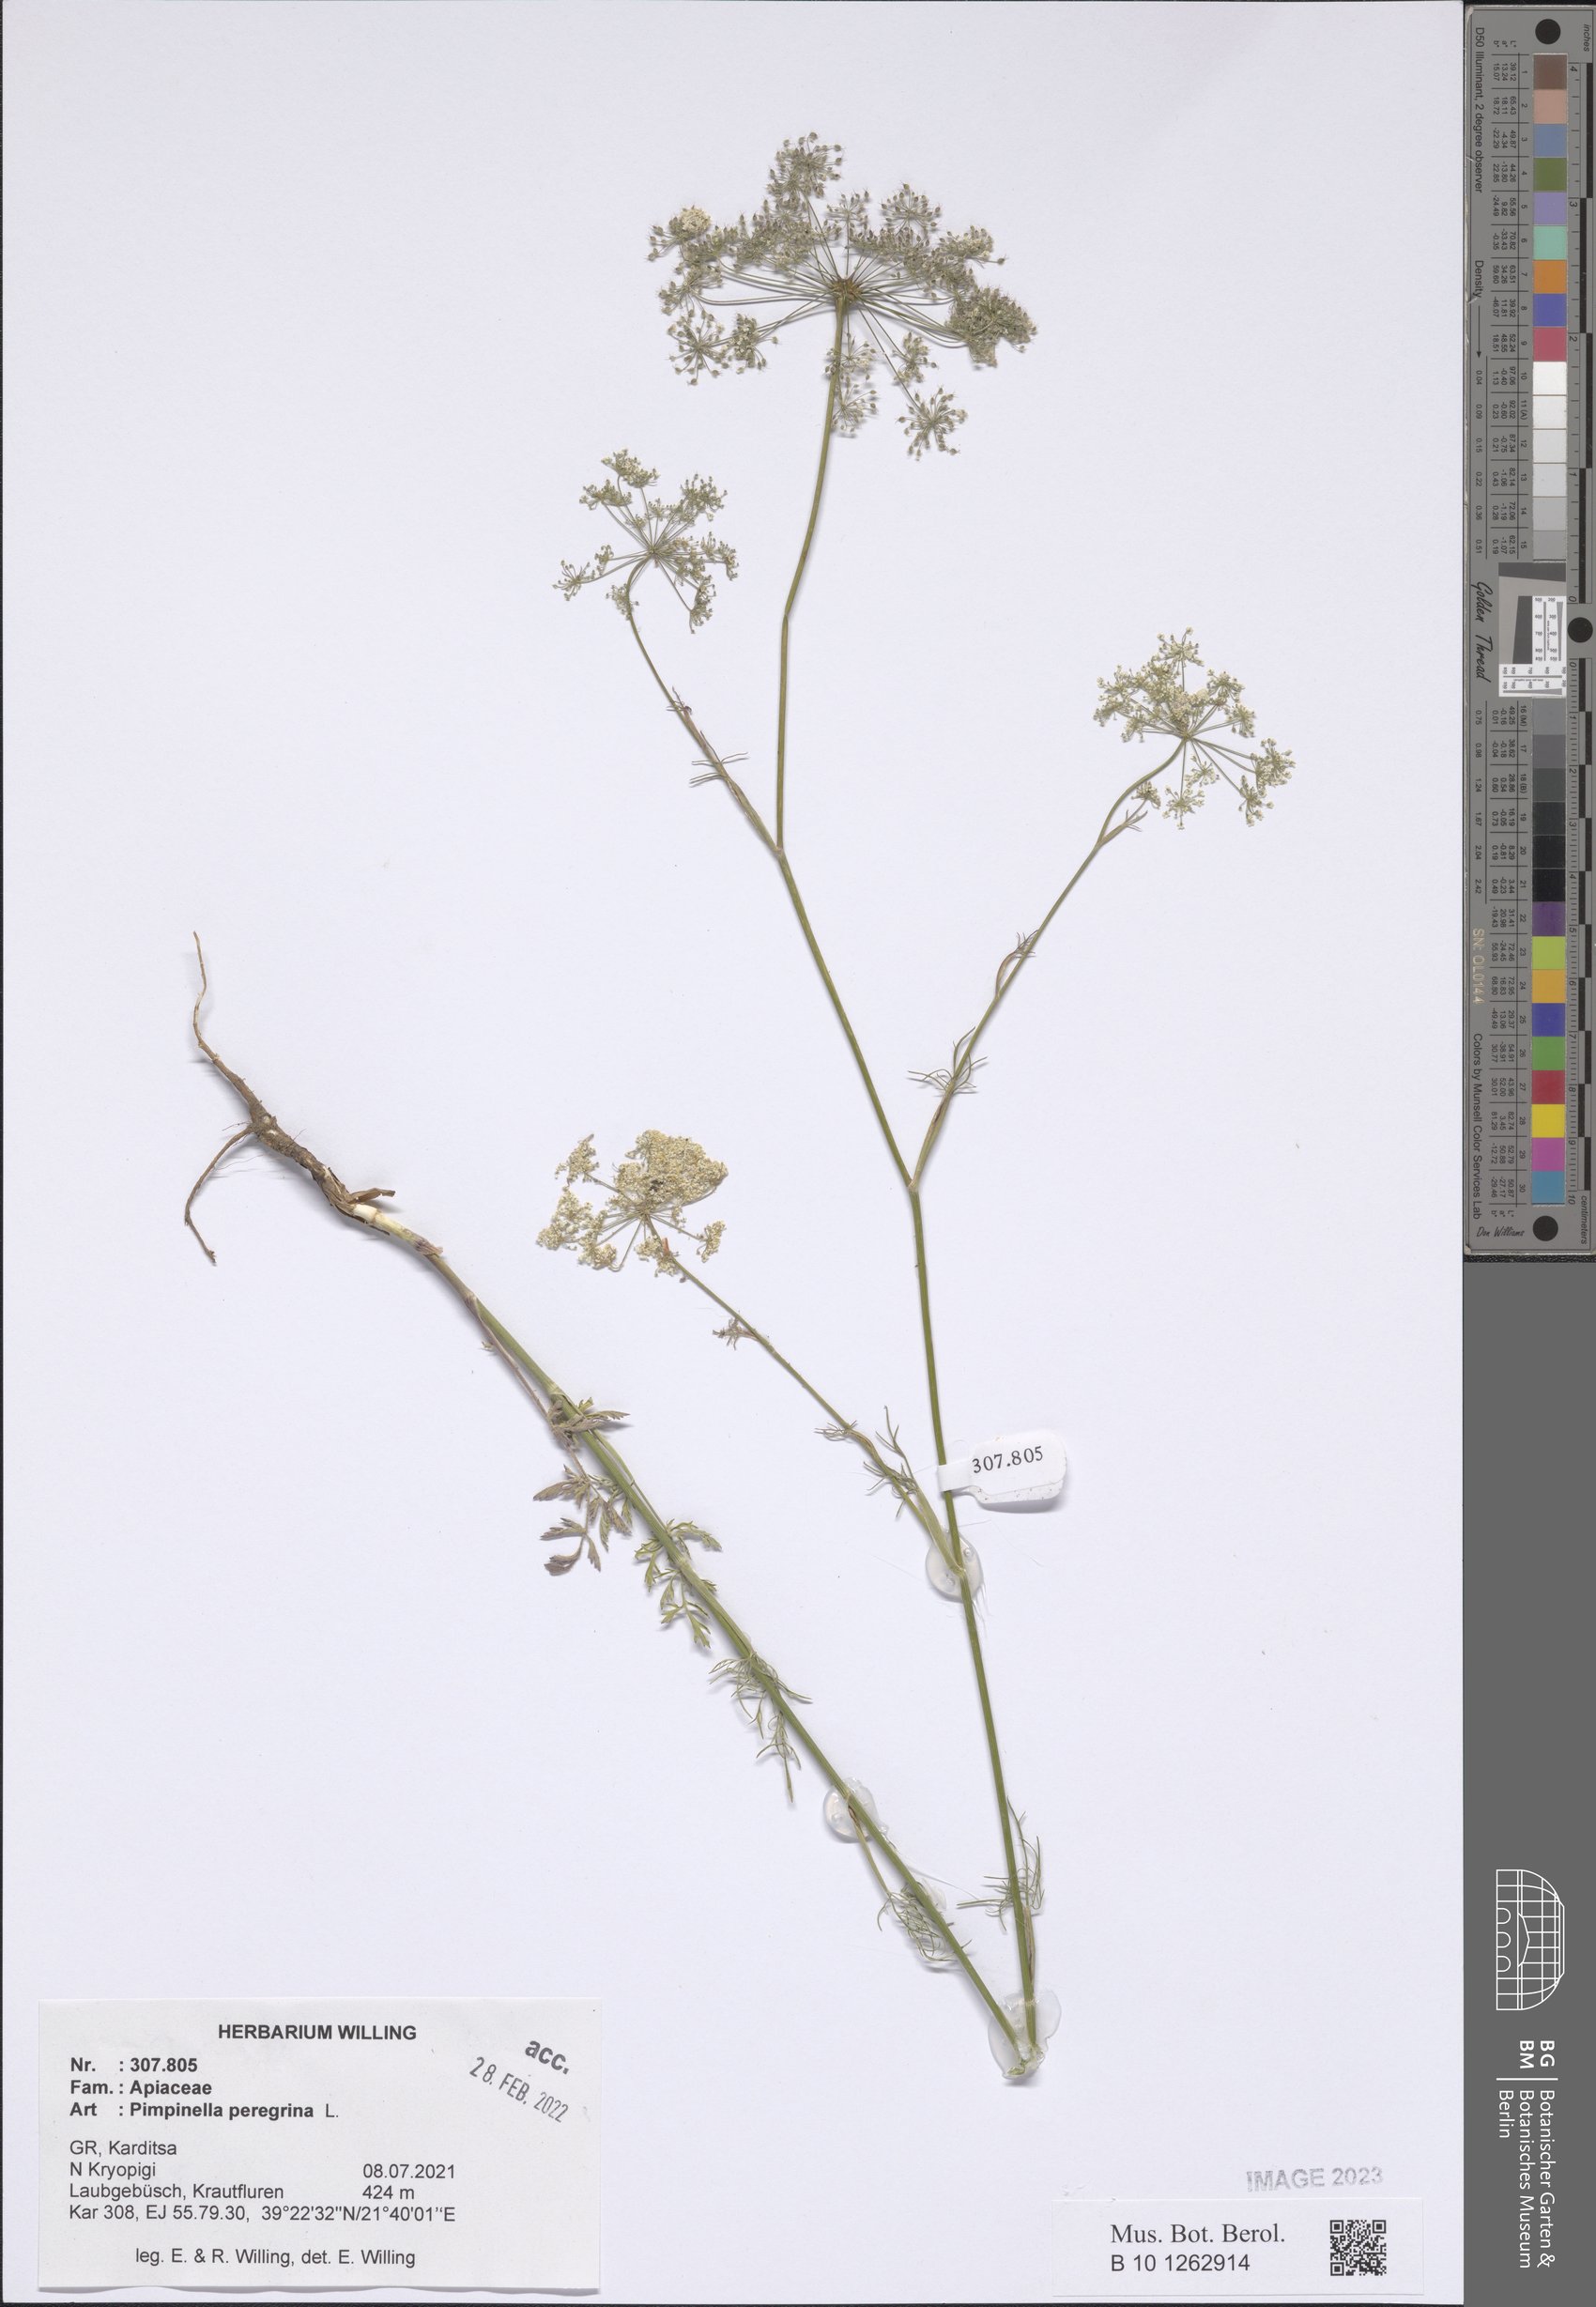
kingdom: Plantae
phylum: Tracheophyta
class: Magnoliopsida
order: Apiales
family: Apiaceae
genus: Pimpinella
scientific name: Pimpinella peregrina
